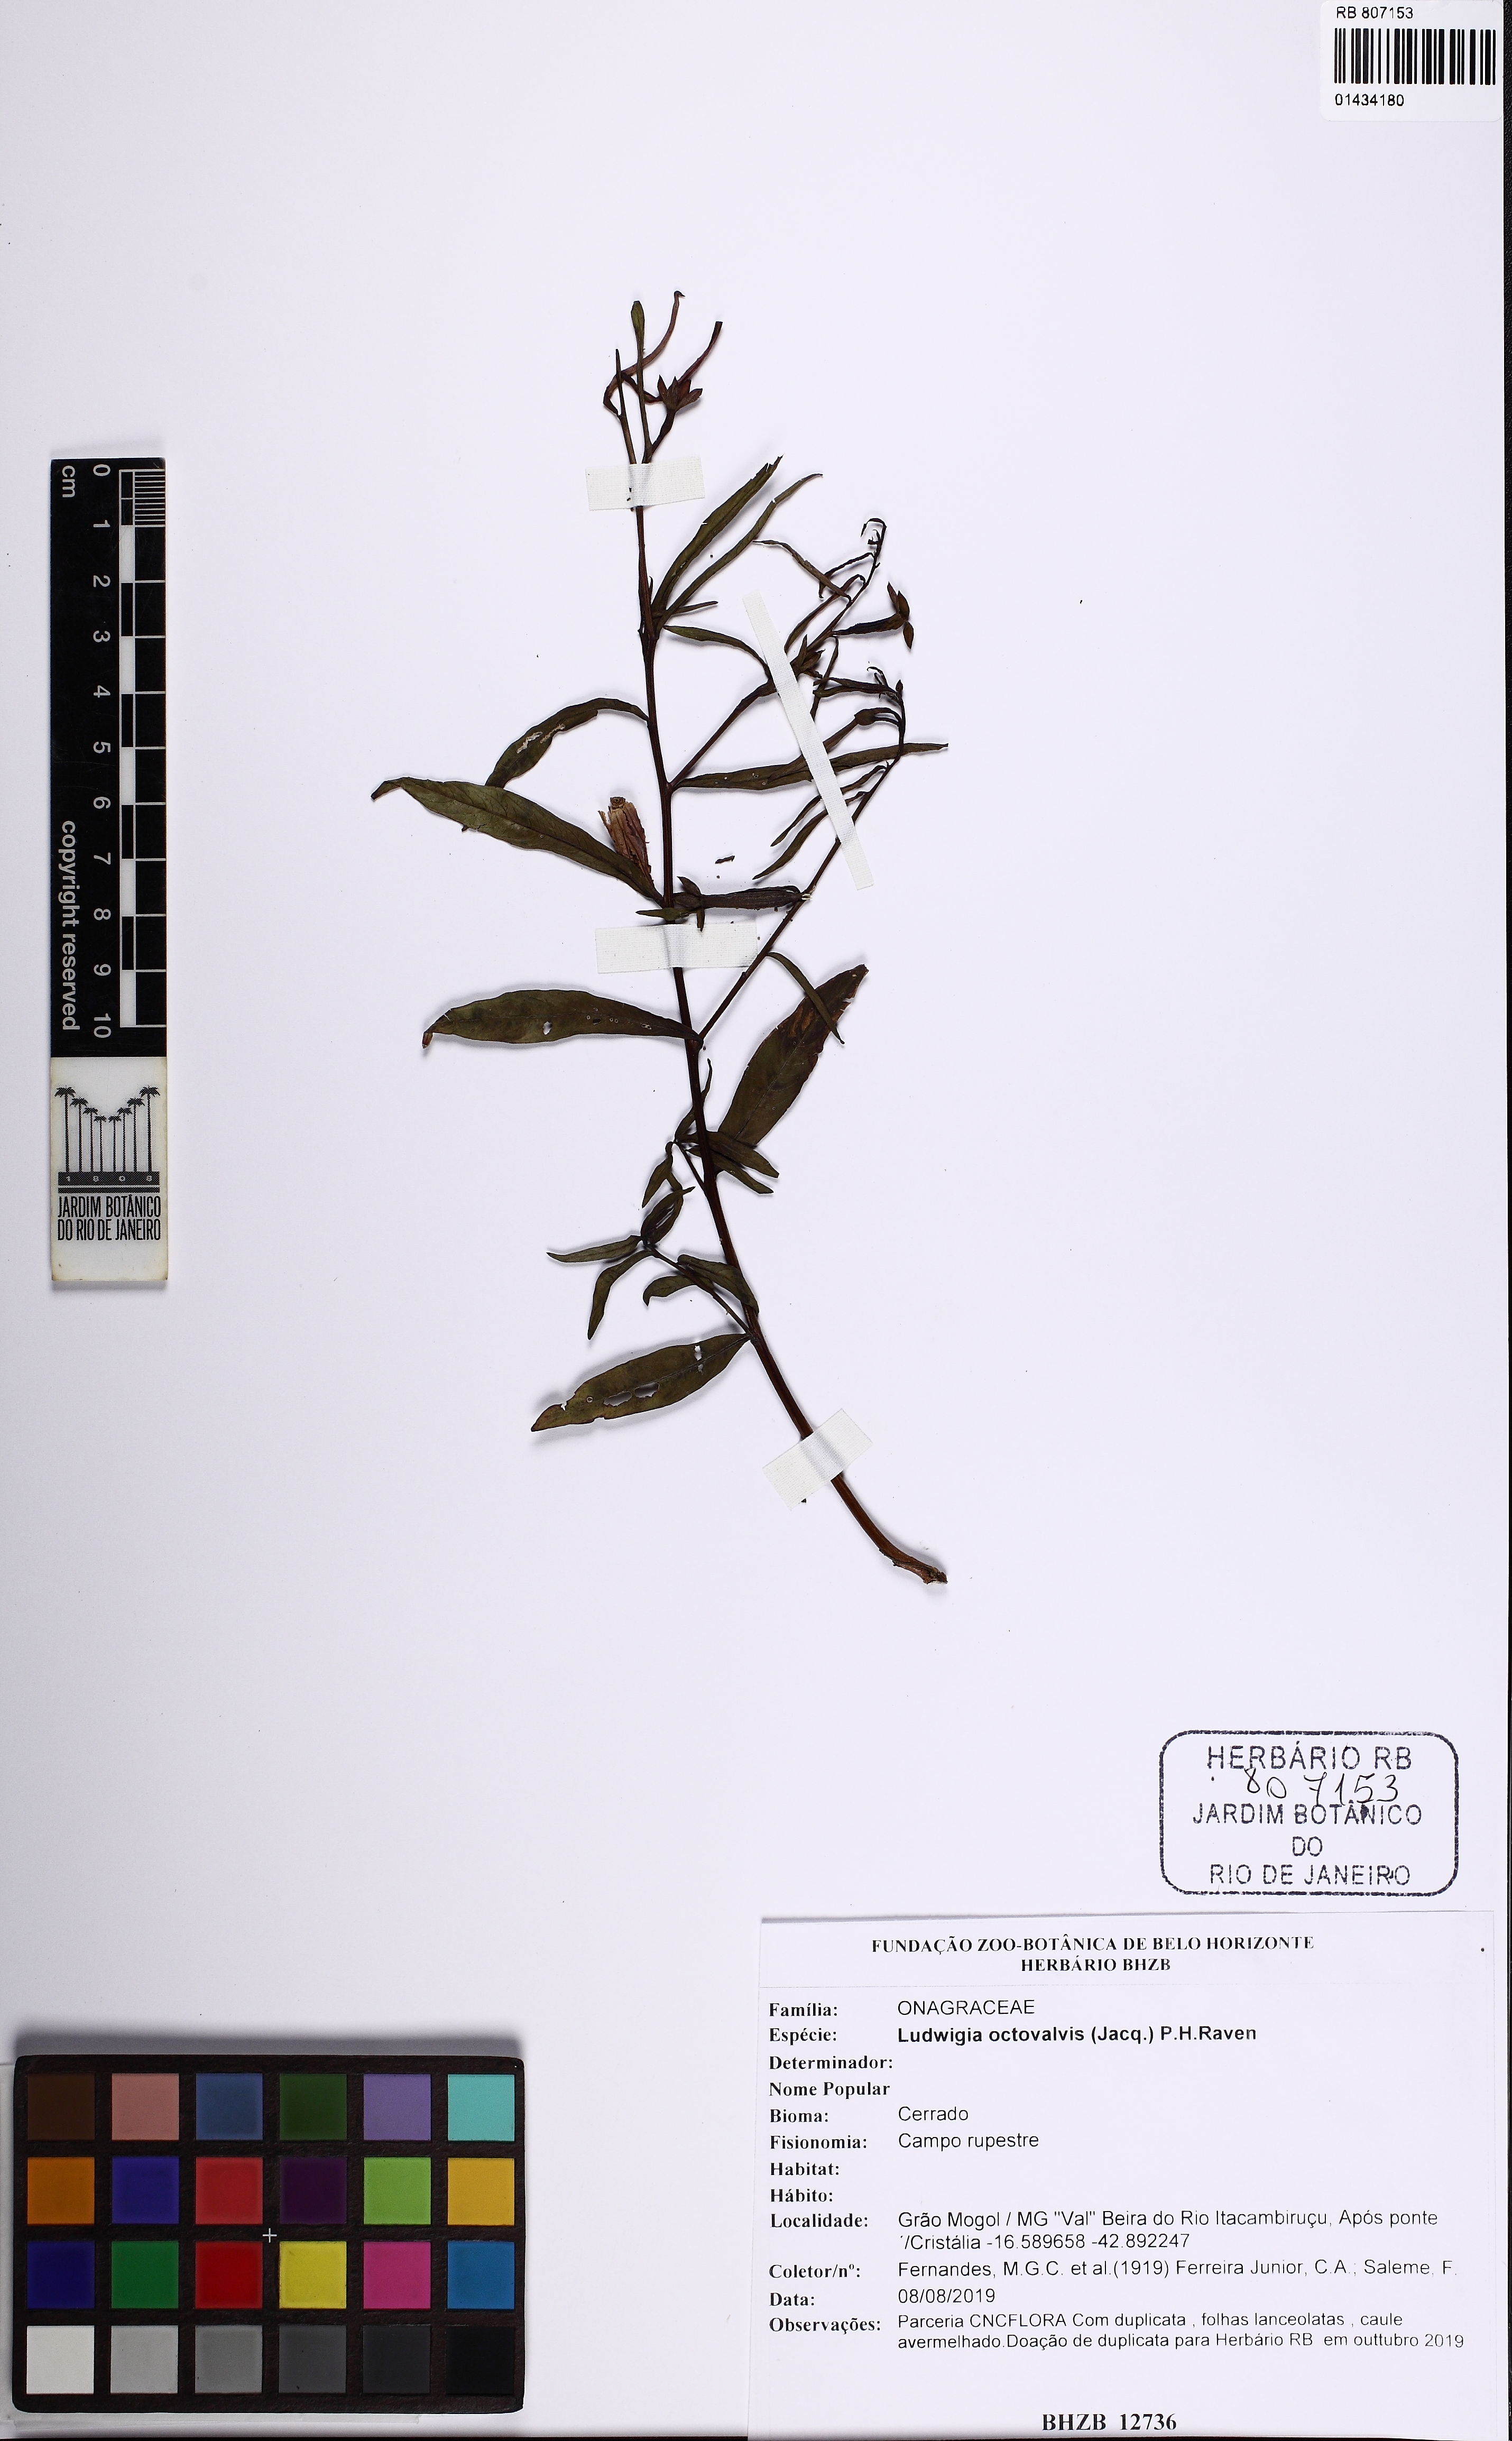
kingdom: Plantae
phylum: Tracheophyta
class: Magnoliopsida
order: Myrtales
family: Onagraceae
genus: Ludwigia
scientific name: Ludwigia octovalvis
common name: Water-primrose
